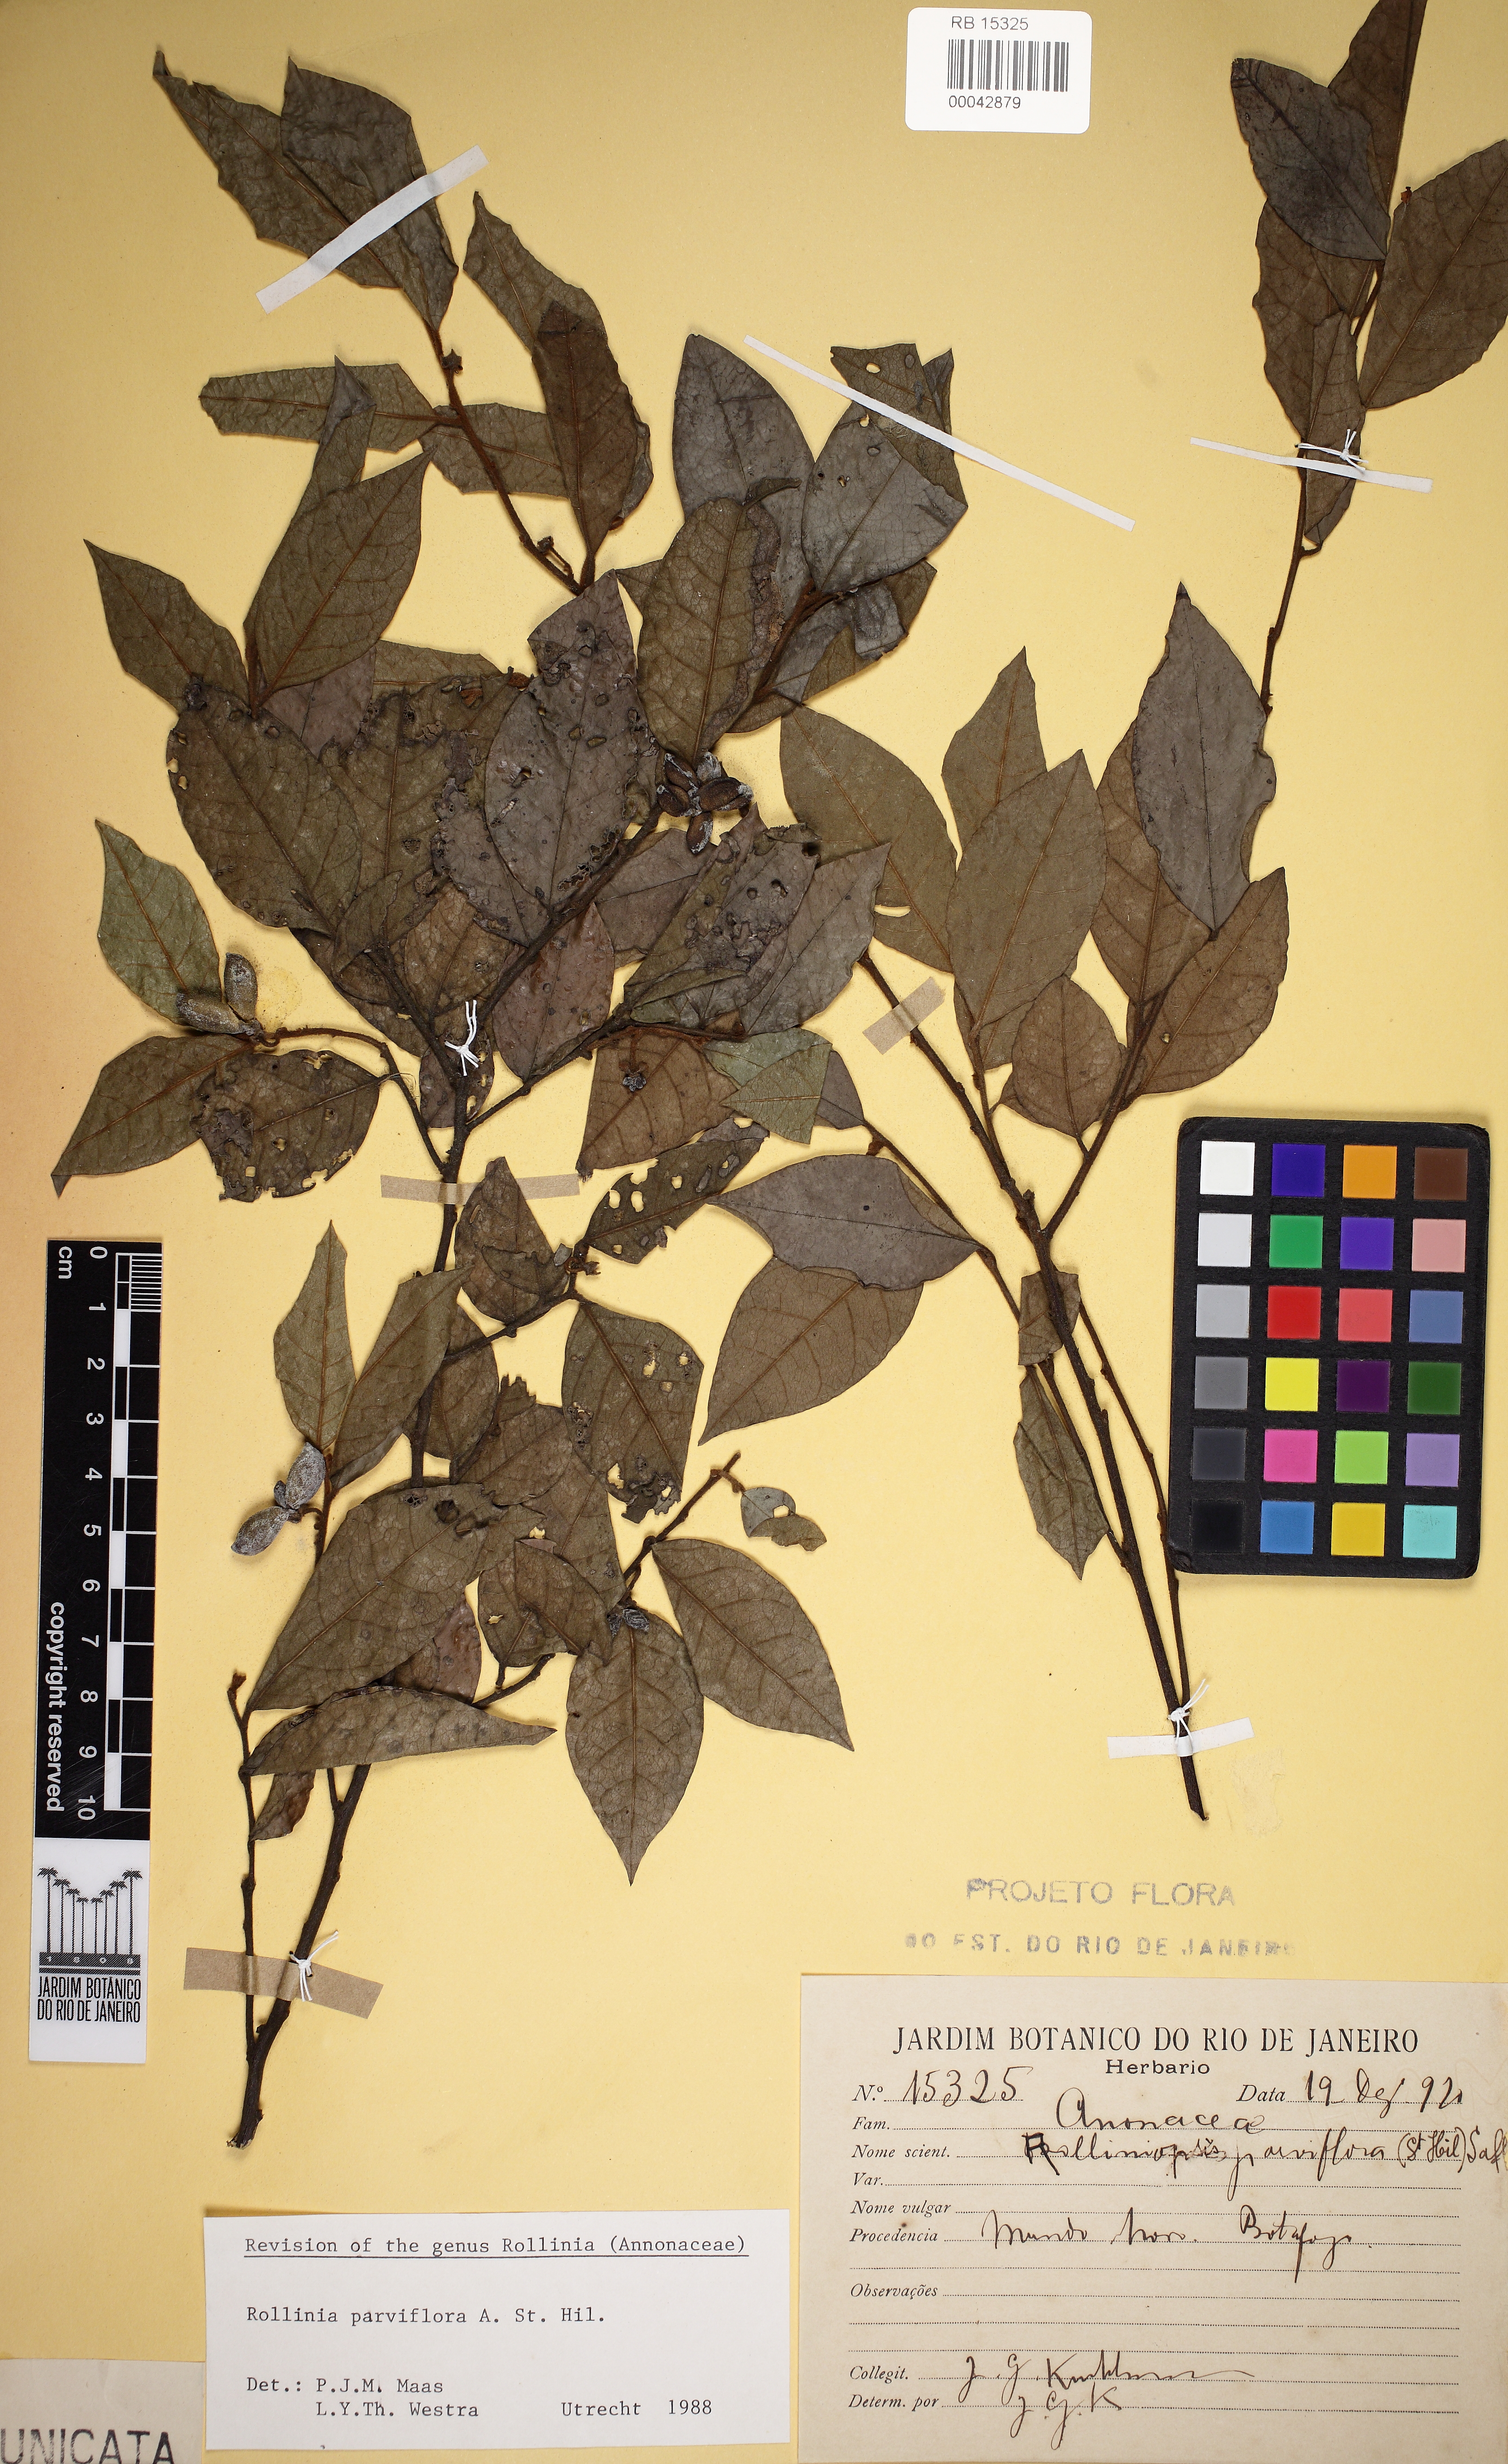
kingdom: Plantae
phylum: Tracheophyta
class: Magnoliopsida
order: Magnoliales
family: Annonaceae
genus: Annona
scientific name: Annona parviflora
